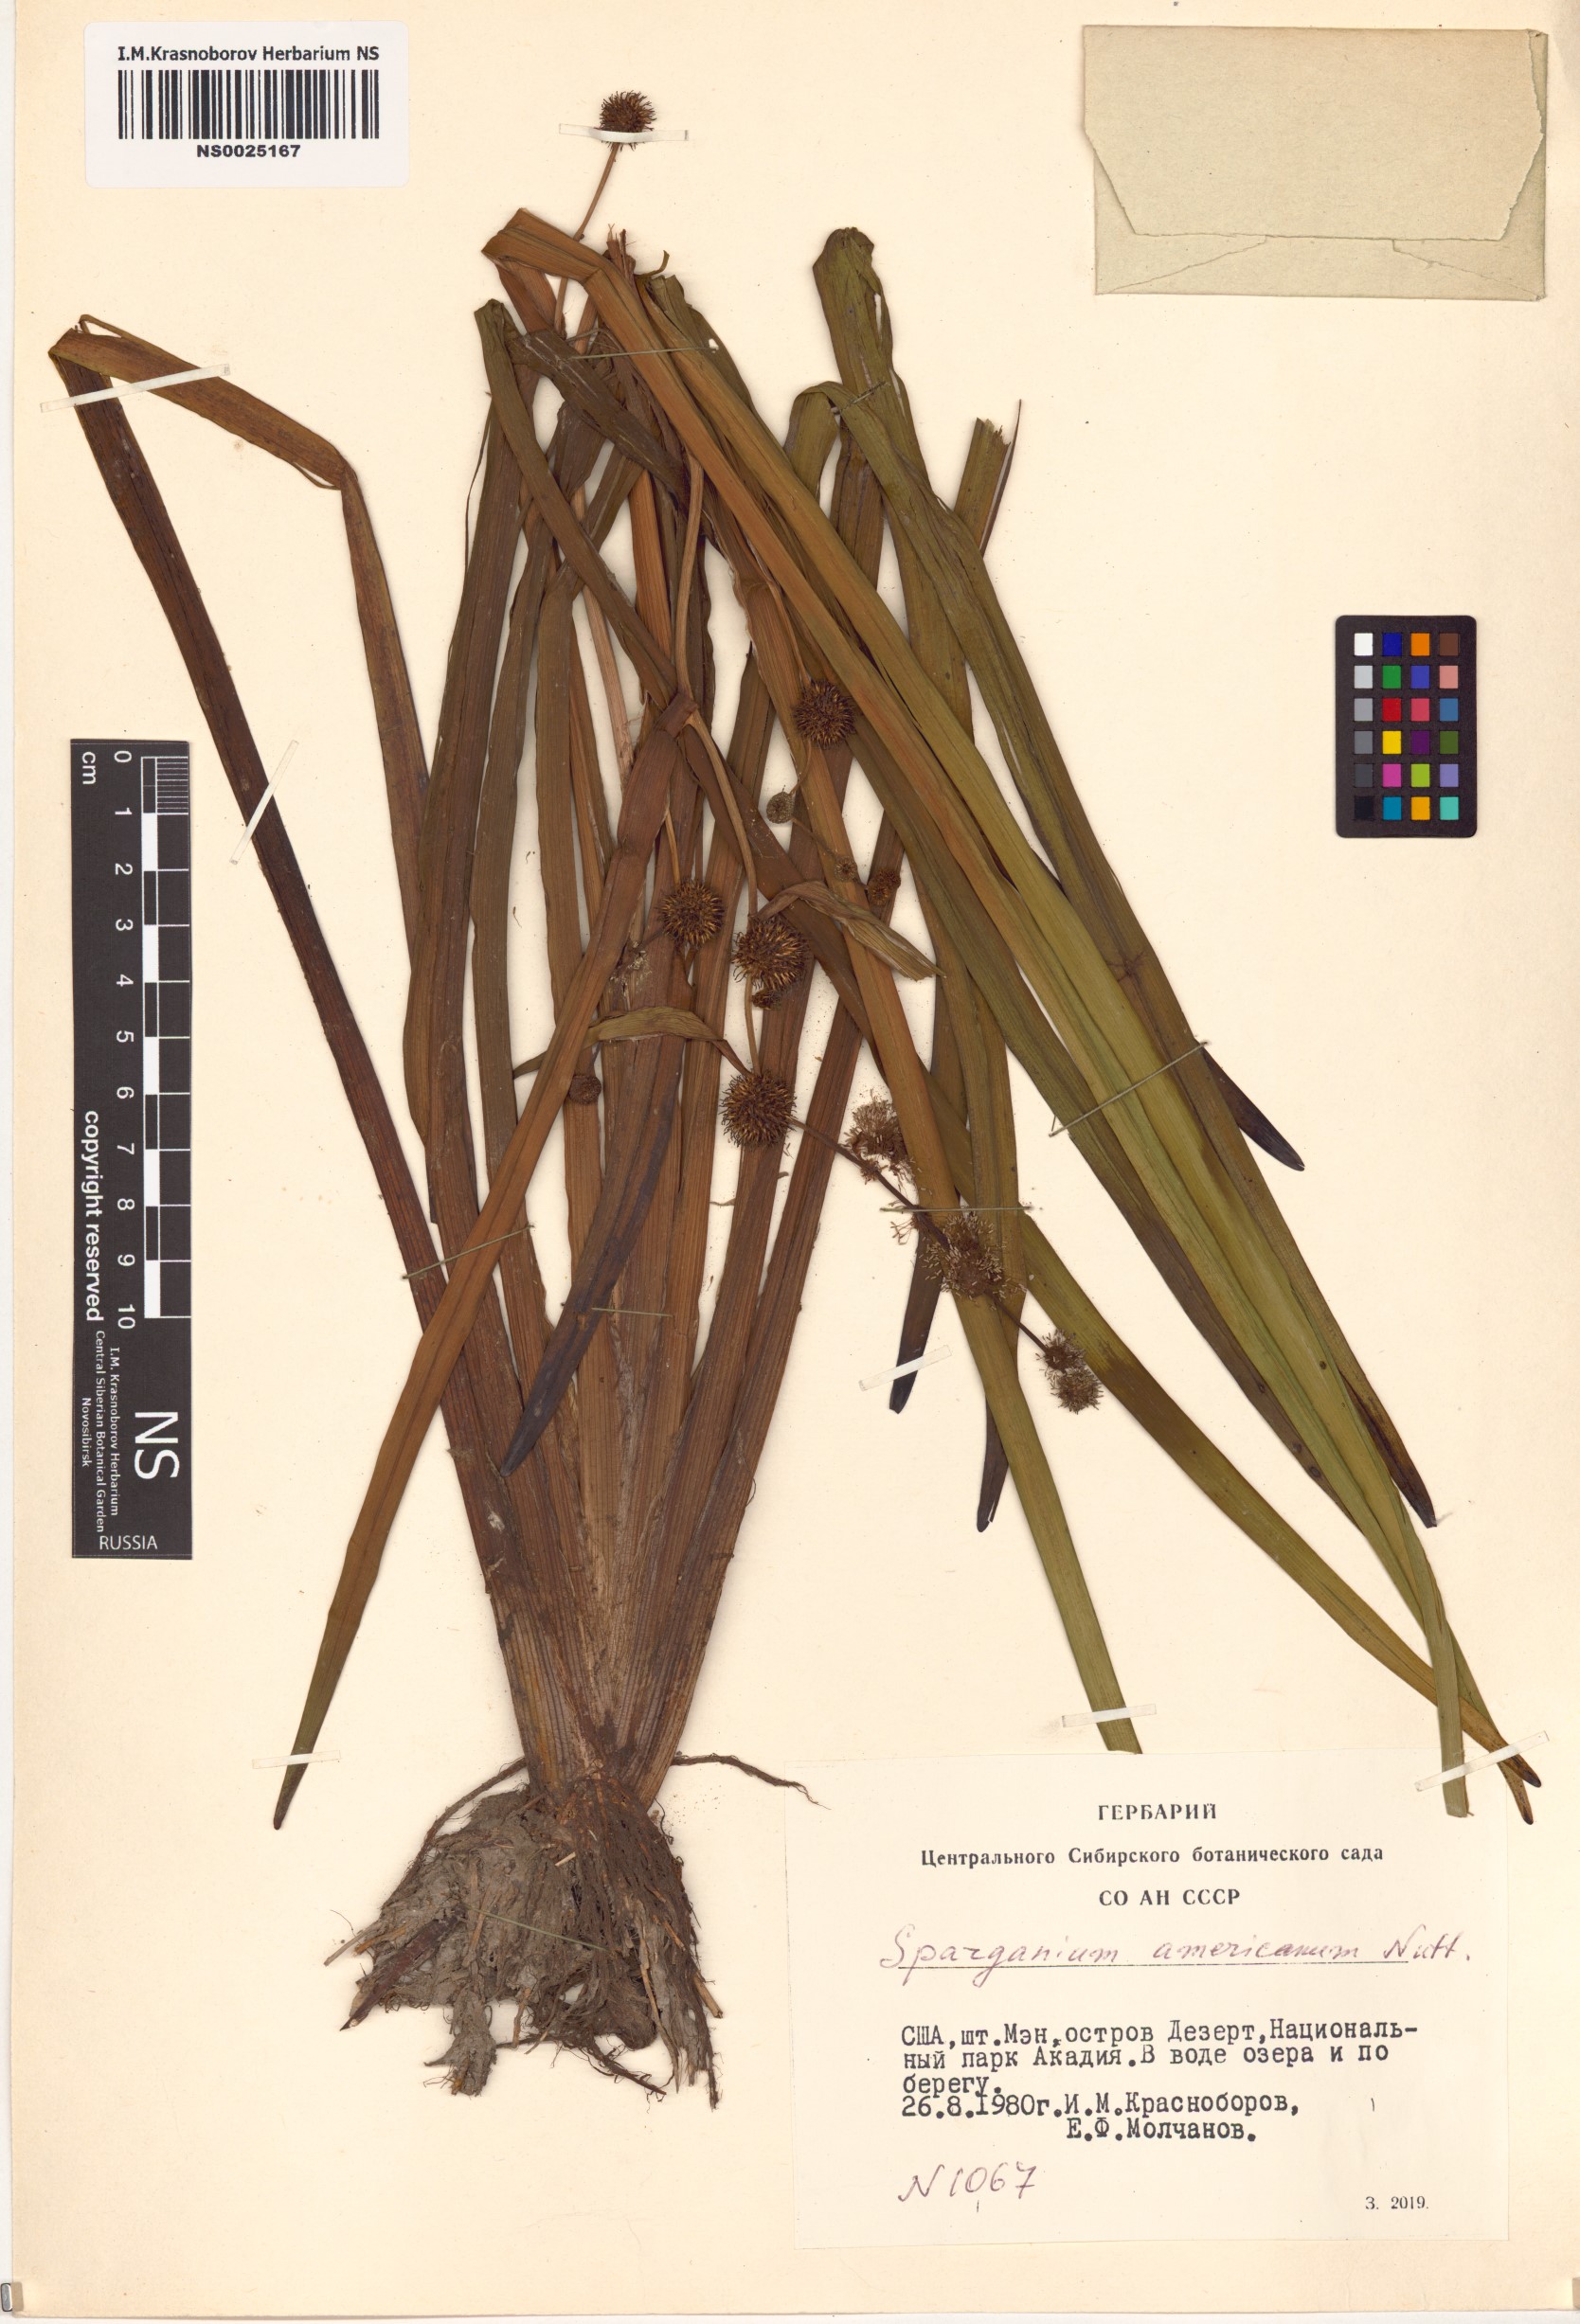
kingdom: Plantae
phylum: Tracheophyta
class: Liliopsida
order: Poales
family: Typhaceae
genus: Sparganium
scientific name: Sparganium americanum
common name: American burreed
